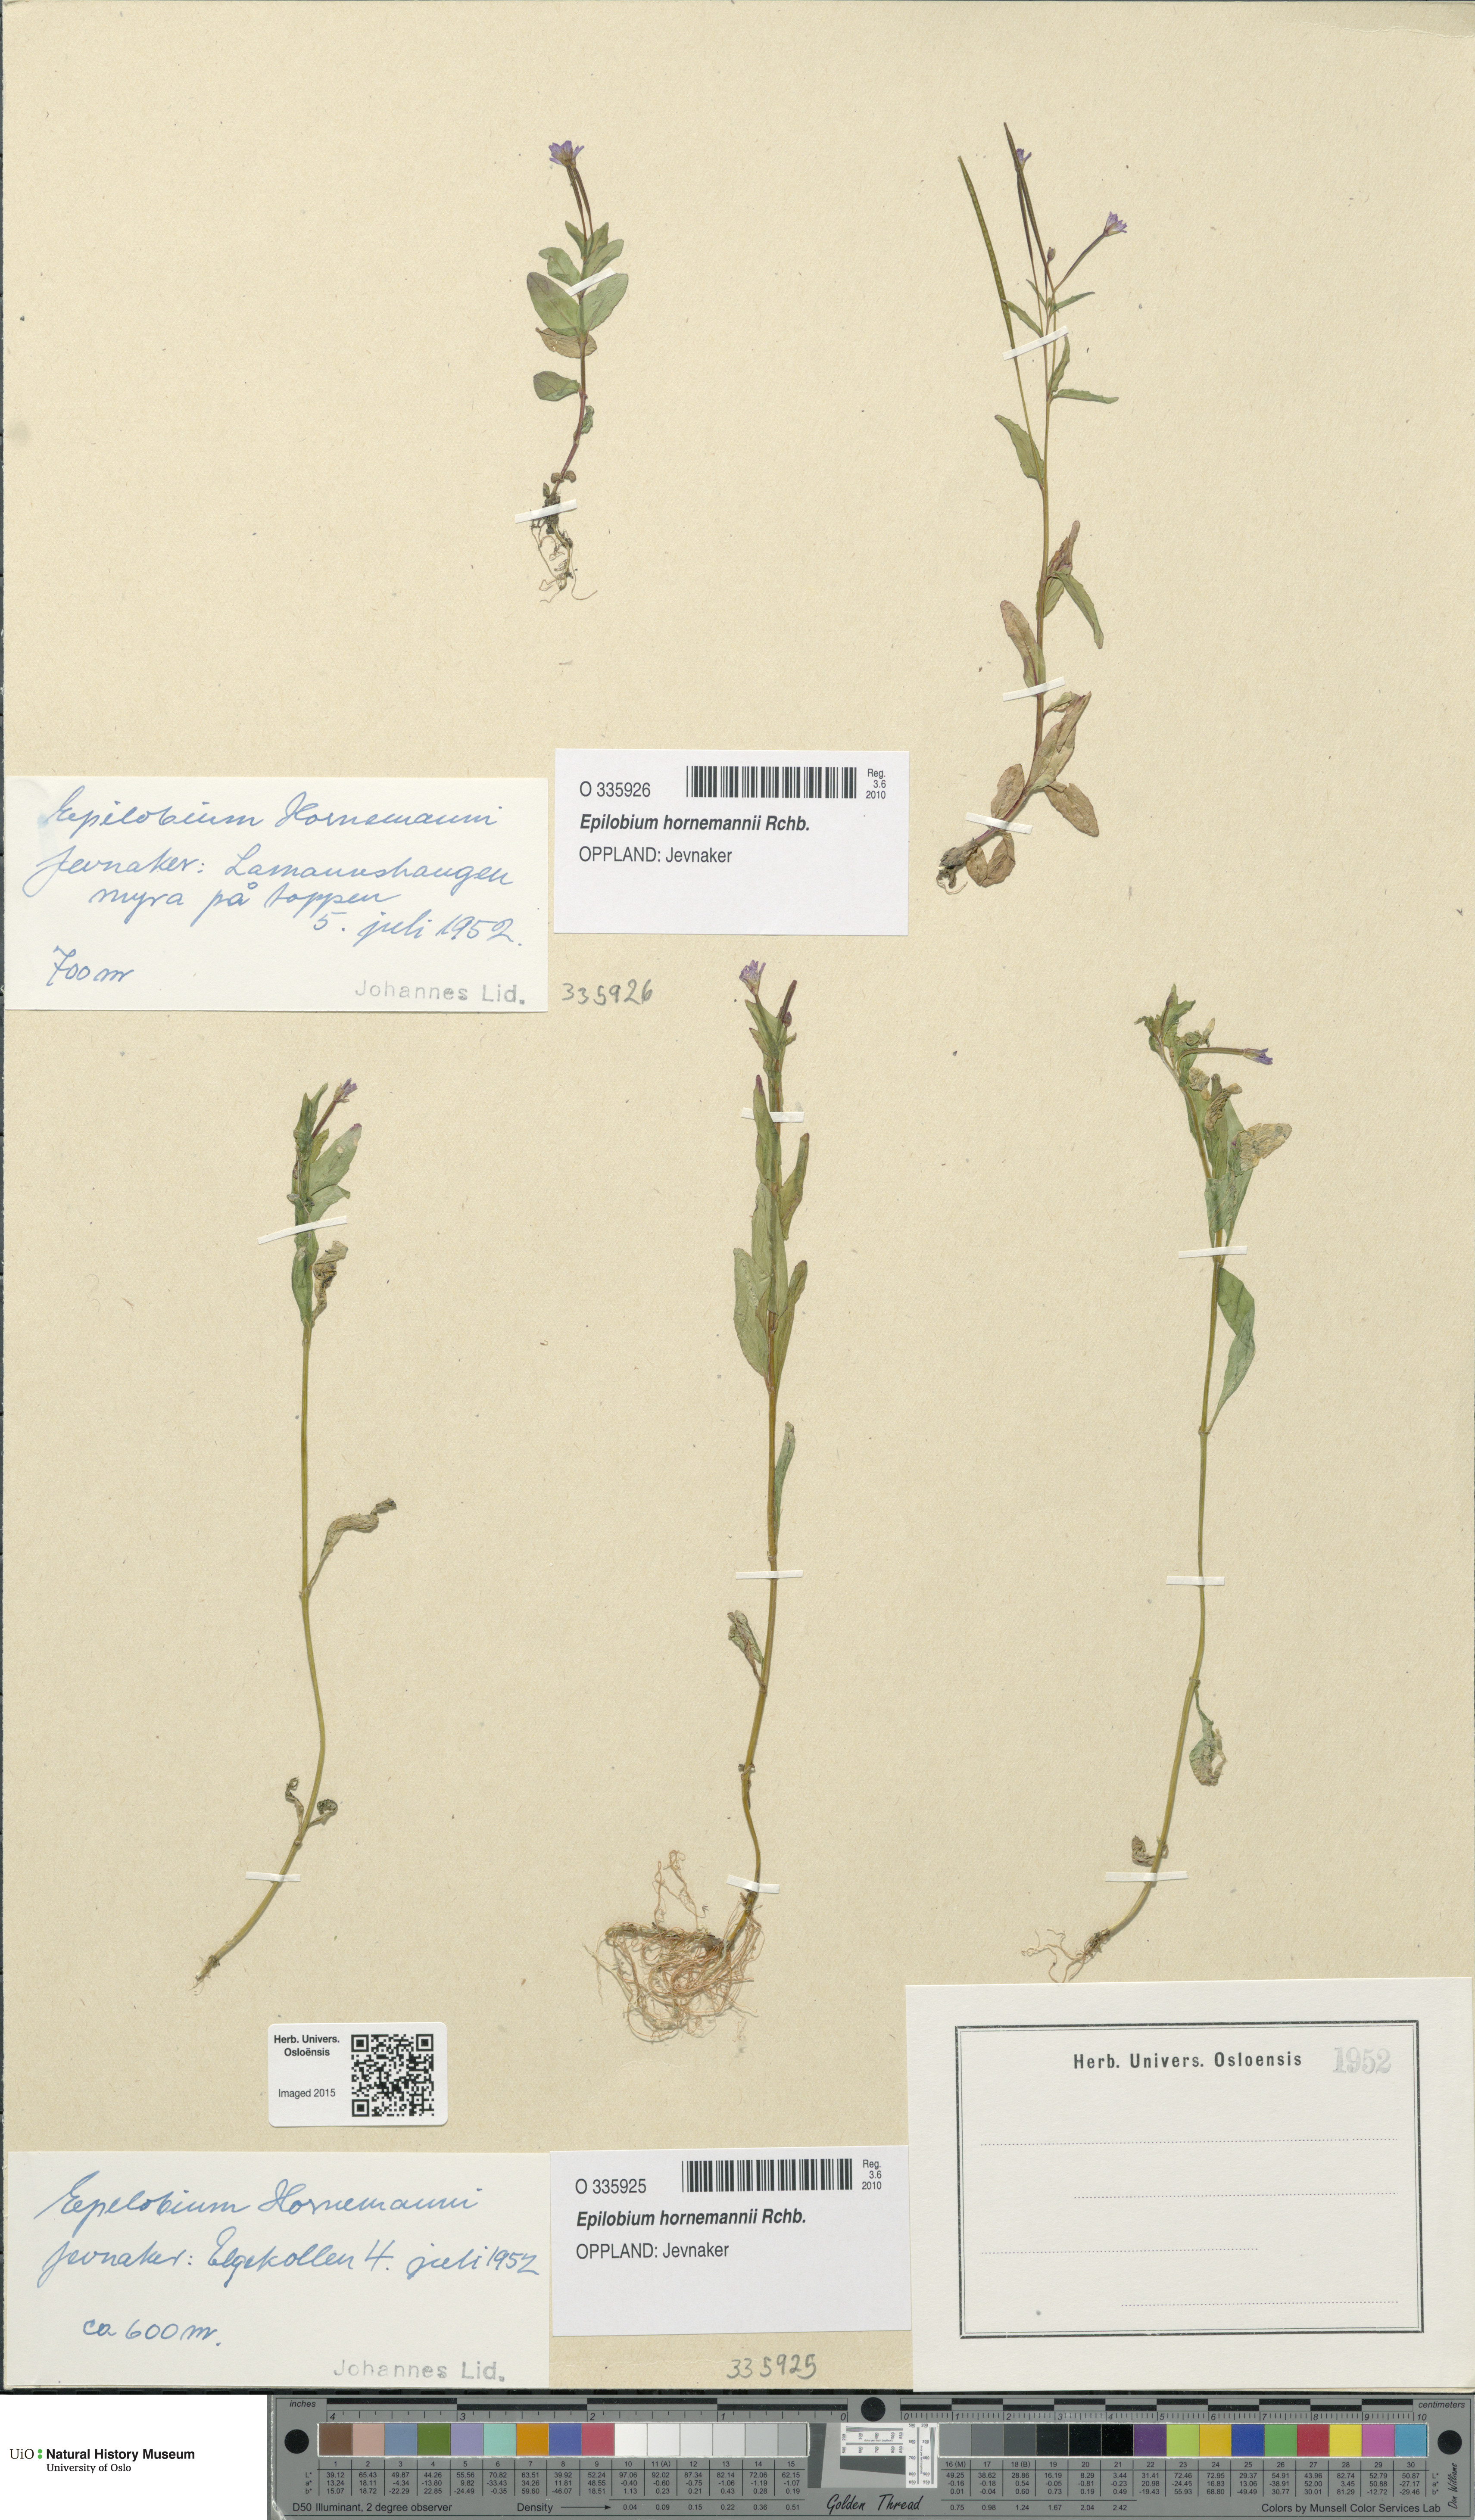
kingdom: Plantae
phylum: Tracheophyta
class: Magnoliopsida
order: Myrtales
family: Onagraceae
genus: Epilobium
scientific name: Epilobium hornemannii
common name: Hornemann's willowherb
